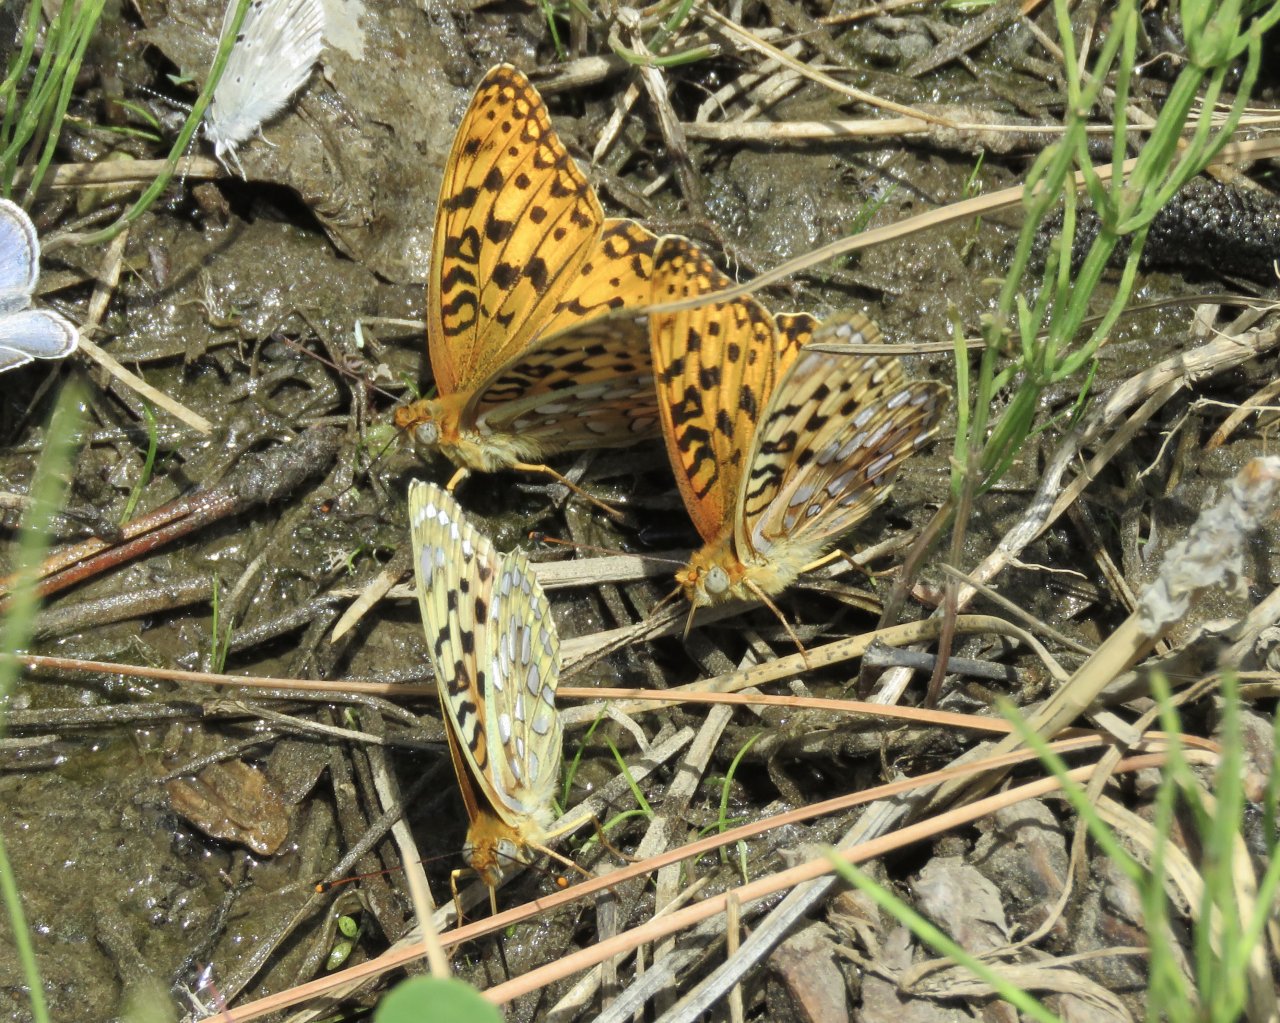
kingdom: Animalia
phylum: Arthropoda
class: Insecta
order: Lepidoptera
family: Nymphalidae
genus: Speyeria
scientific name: Speyeria coronis
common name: Coronis Fritillary
